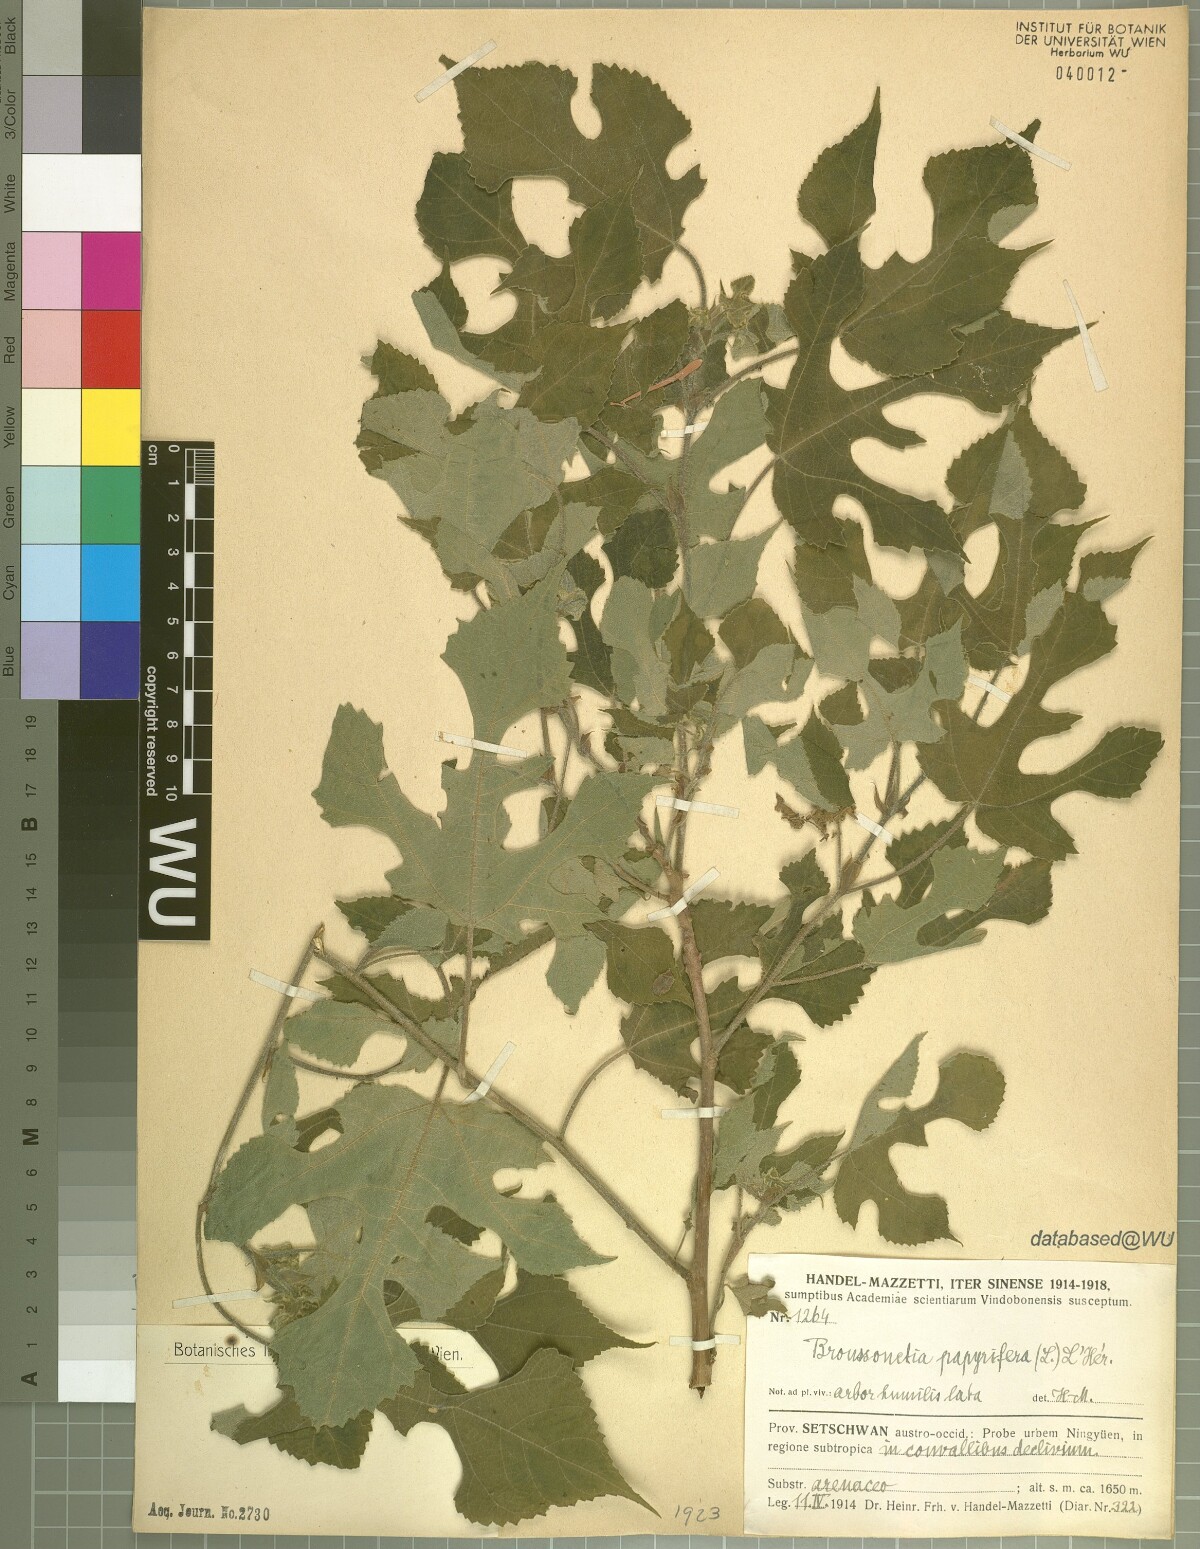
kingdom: Plantae
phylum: Tracheophyta
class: Magnoliopsida
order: Rosales
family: Moraceae
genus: Broussonetia
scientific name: Broussonetia papyrifera
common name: Paper mulberry
